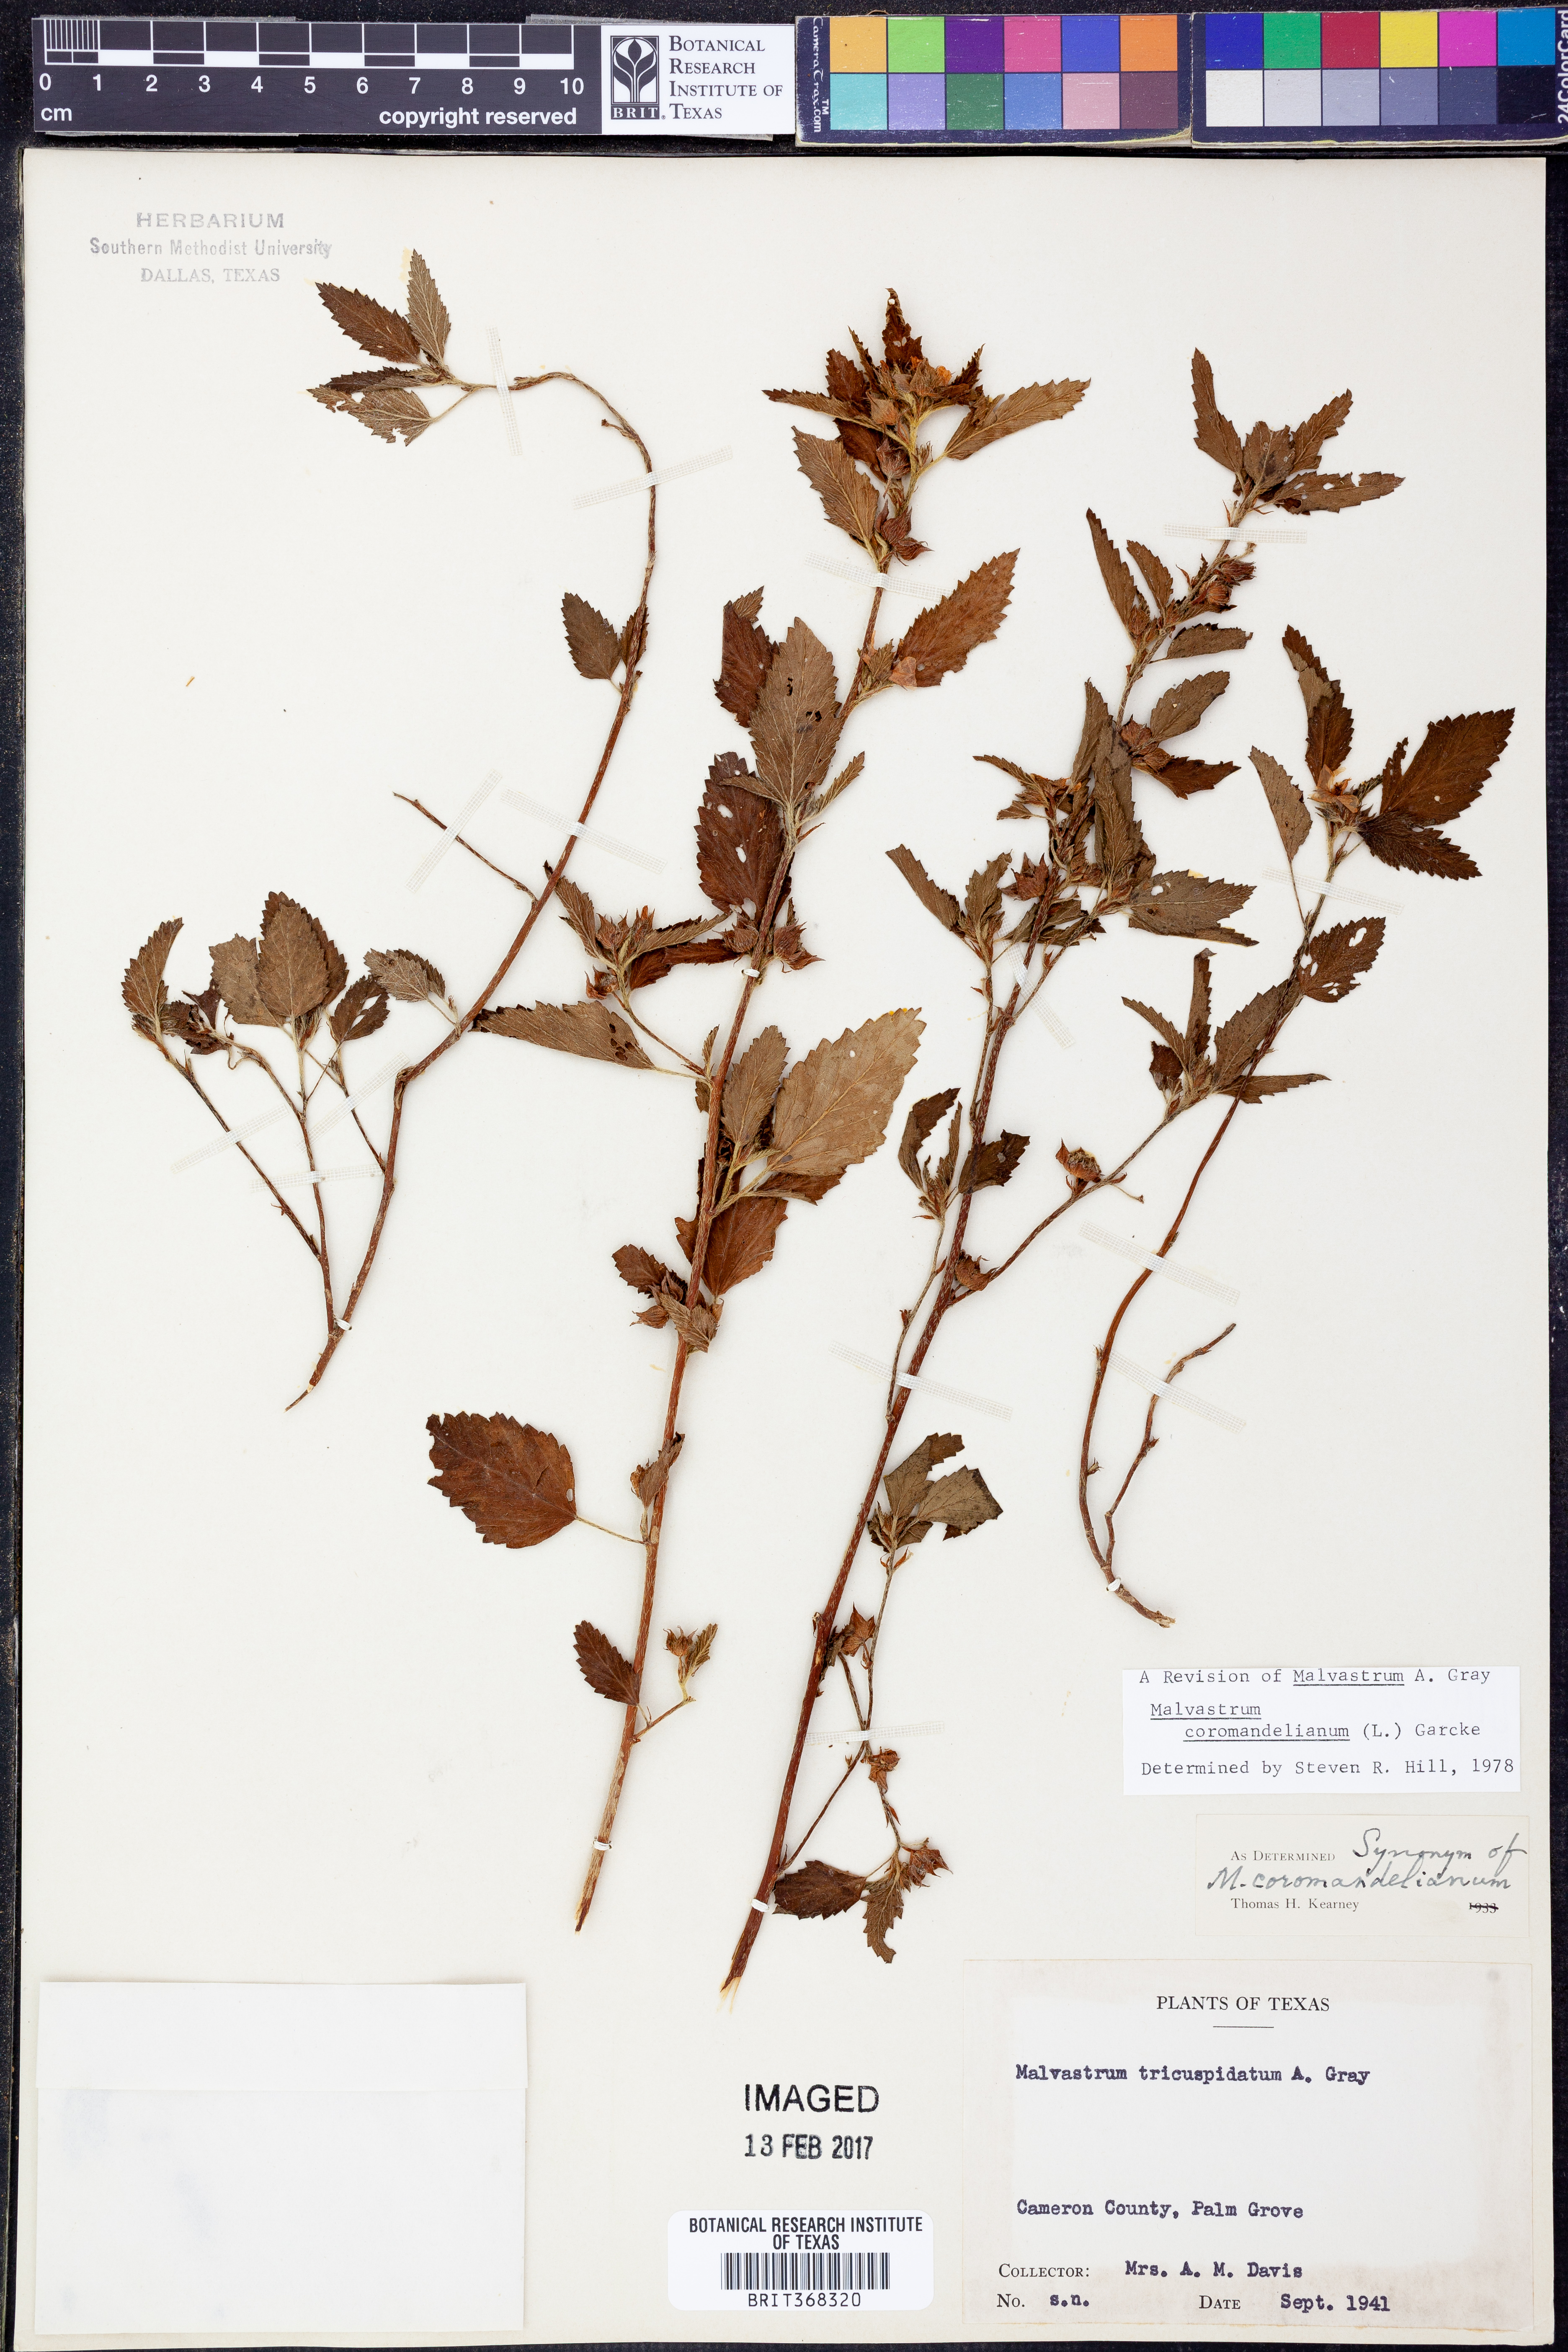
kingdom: Plantae
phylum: Tracheophyta
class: Magnoliopsida
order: Malvales
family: Malvaceae
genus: Malvastrum
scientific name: Malvastrum coromandelianum
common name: Threelobe false mallow
